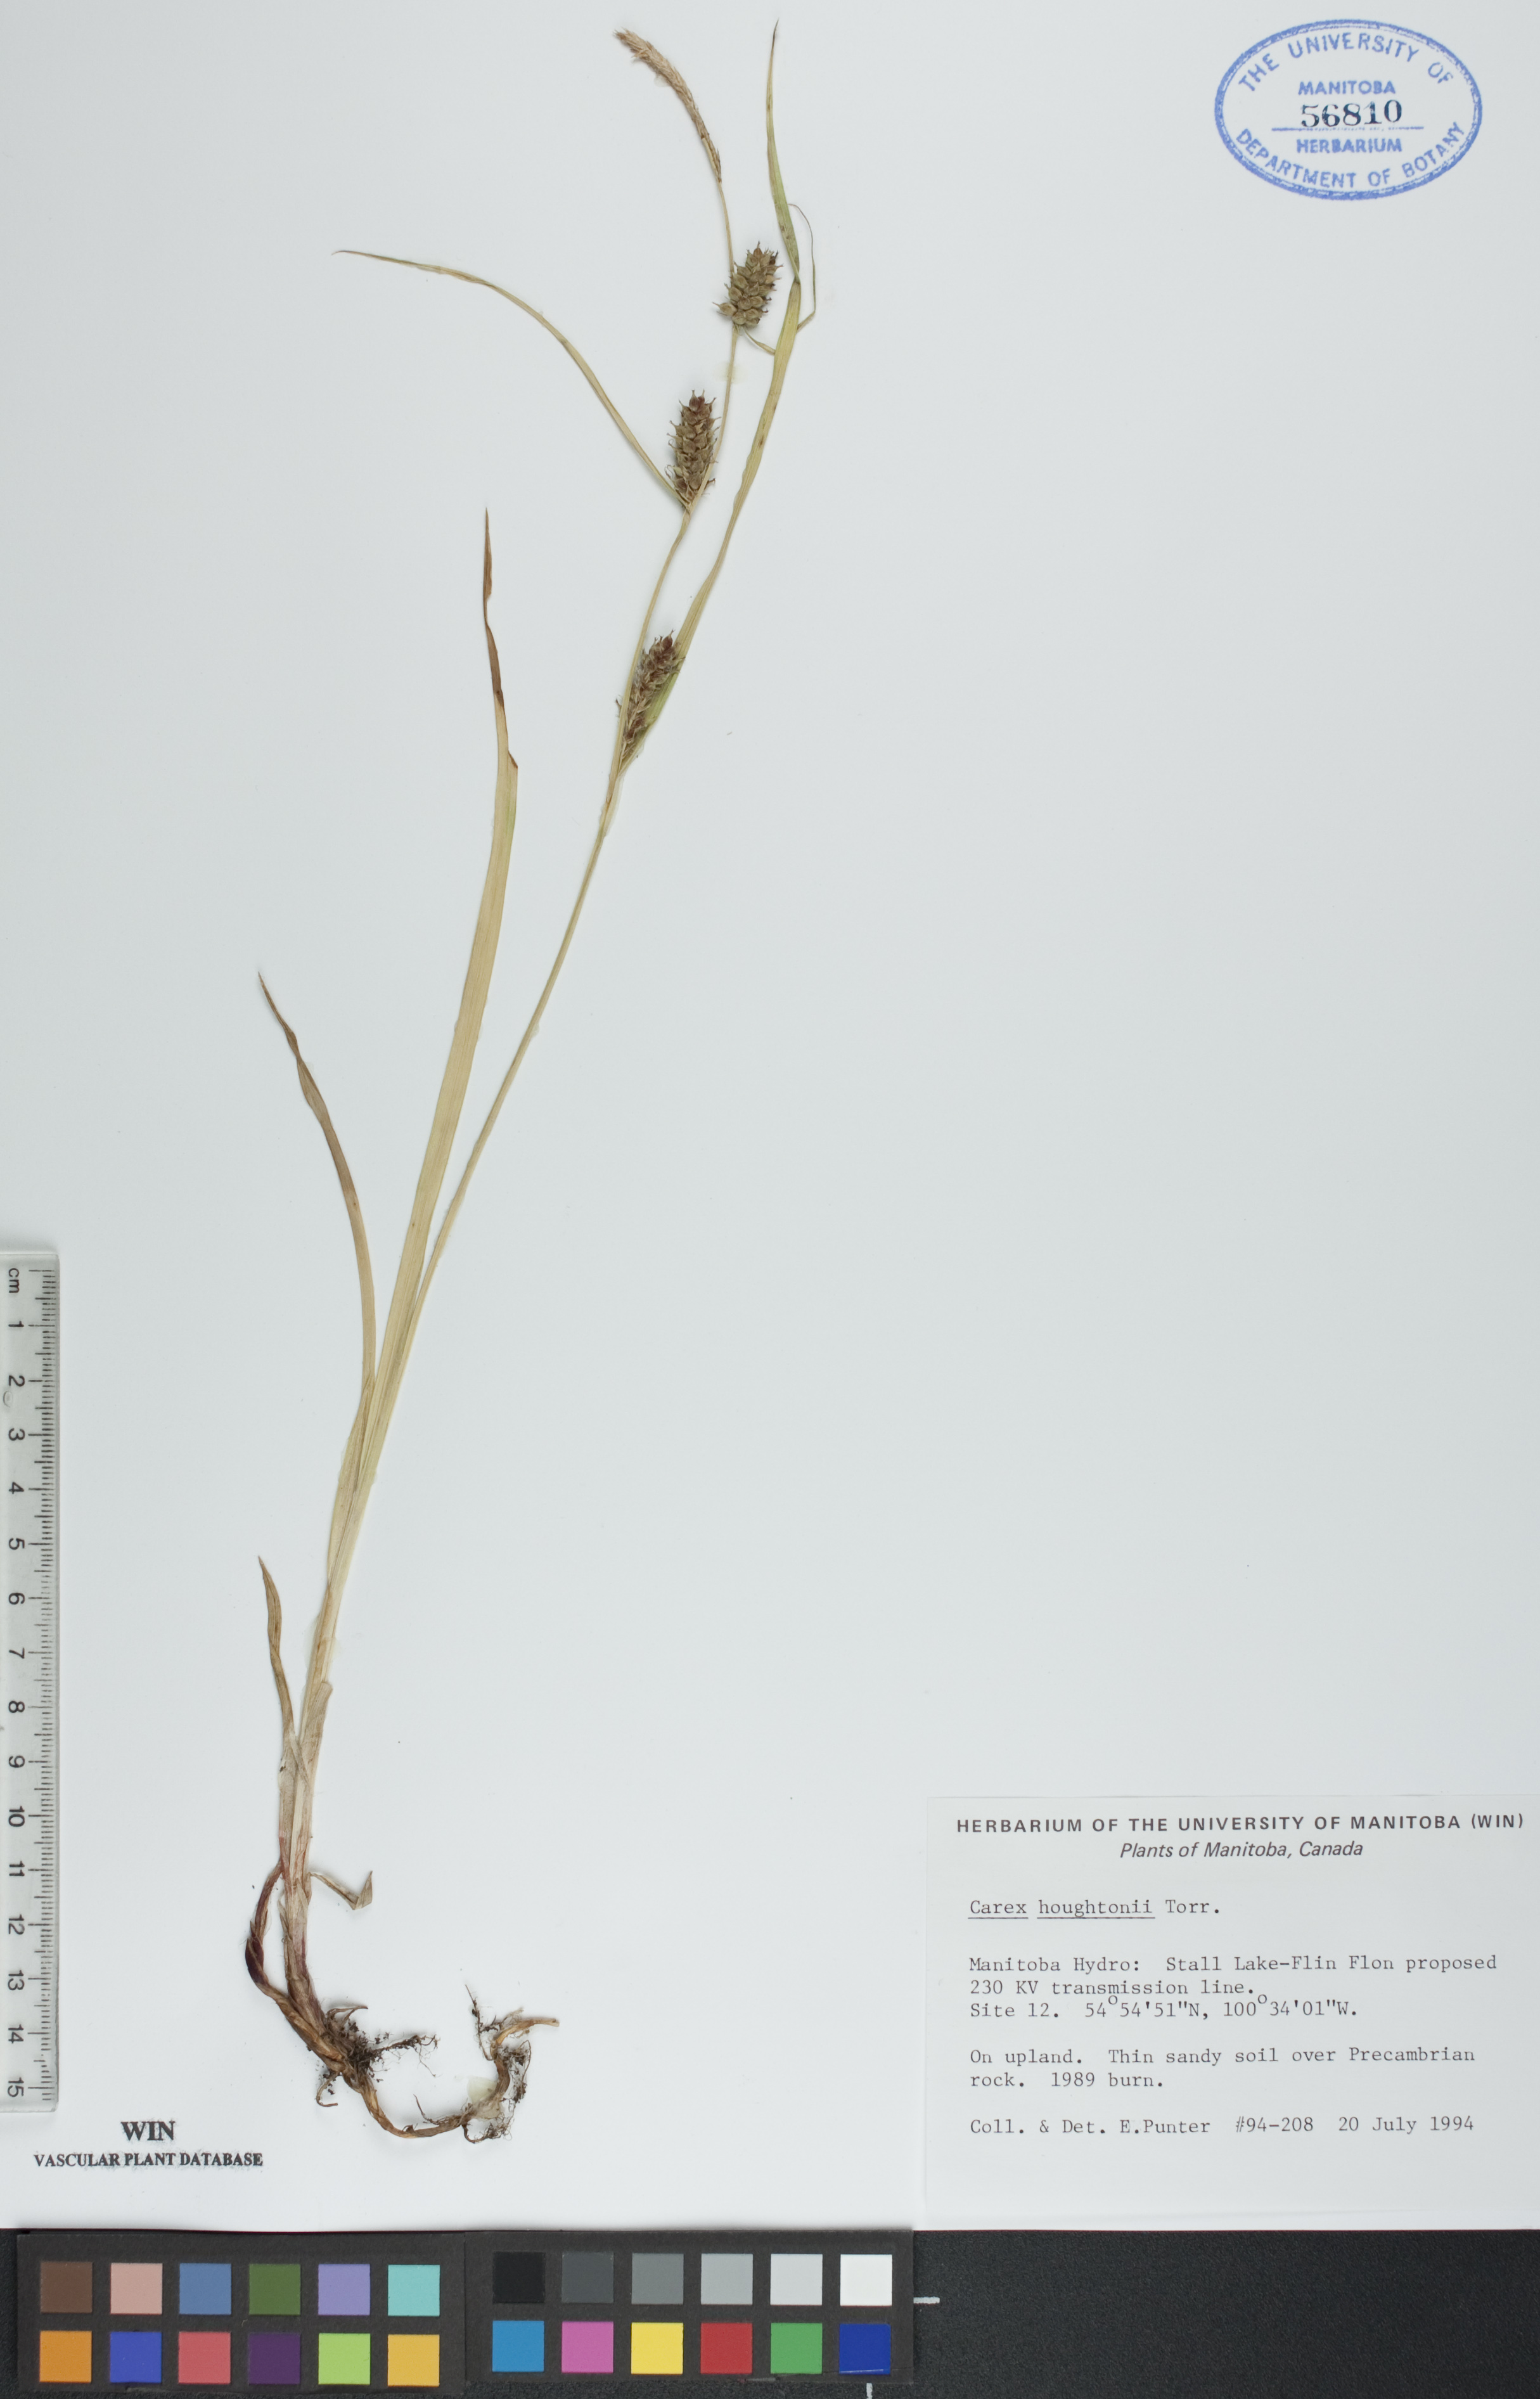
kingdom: Plantae
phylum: Tracheophyta
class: Liliopsida
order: Poales
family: Cyperaceae
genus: Carex
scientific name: Carex houghtoniana
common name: Houghton's sedge
